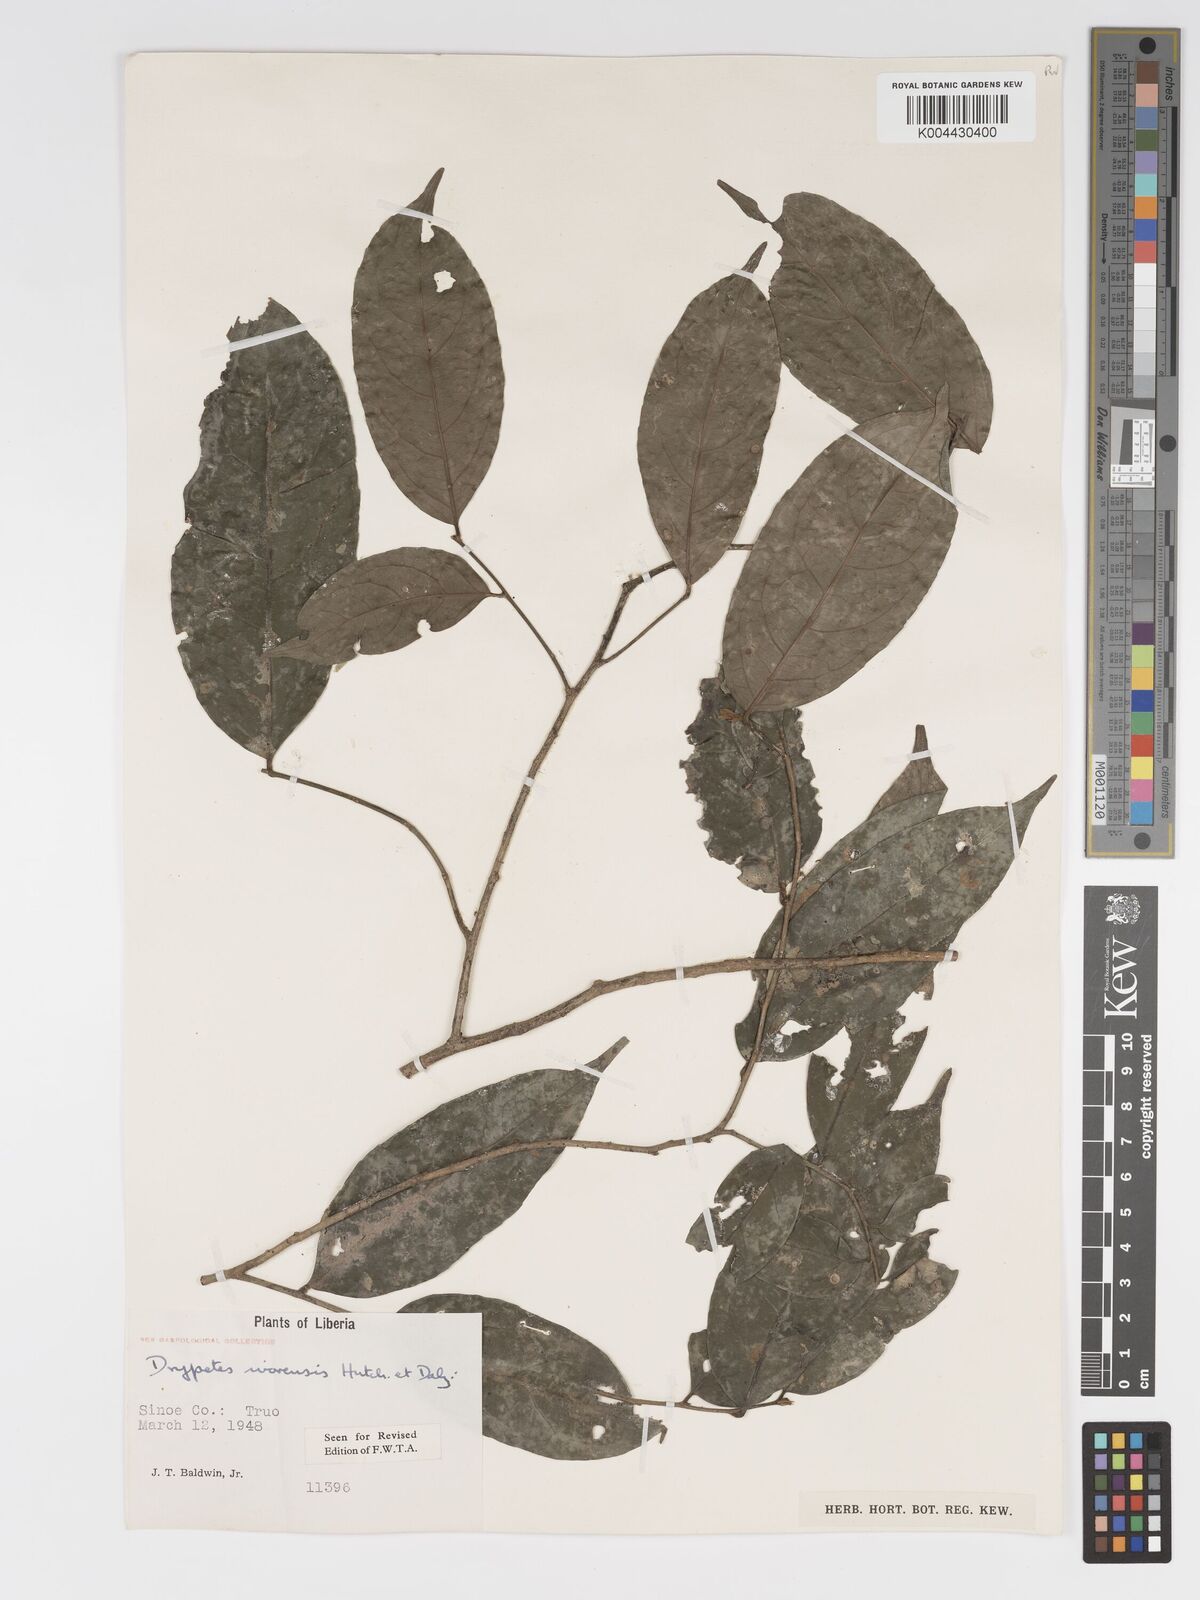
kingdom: Plantae
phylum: Tracheophyta
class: Magnoliopsida
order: Malpighiales
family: Putranjivaceae
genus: Drypetes
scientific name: Drypetes ivorensis
